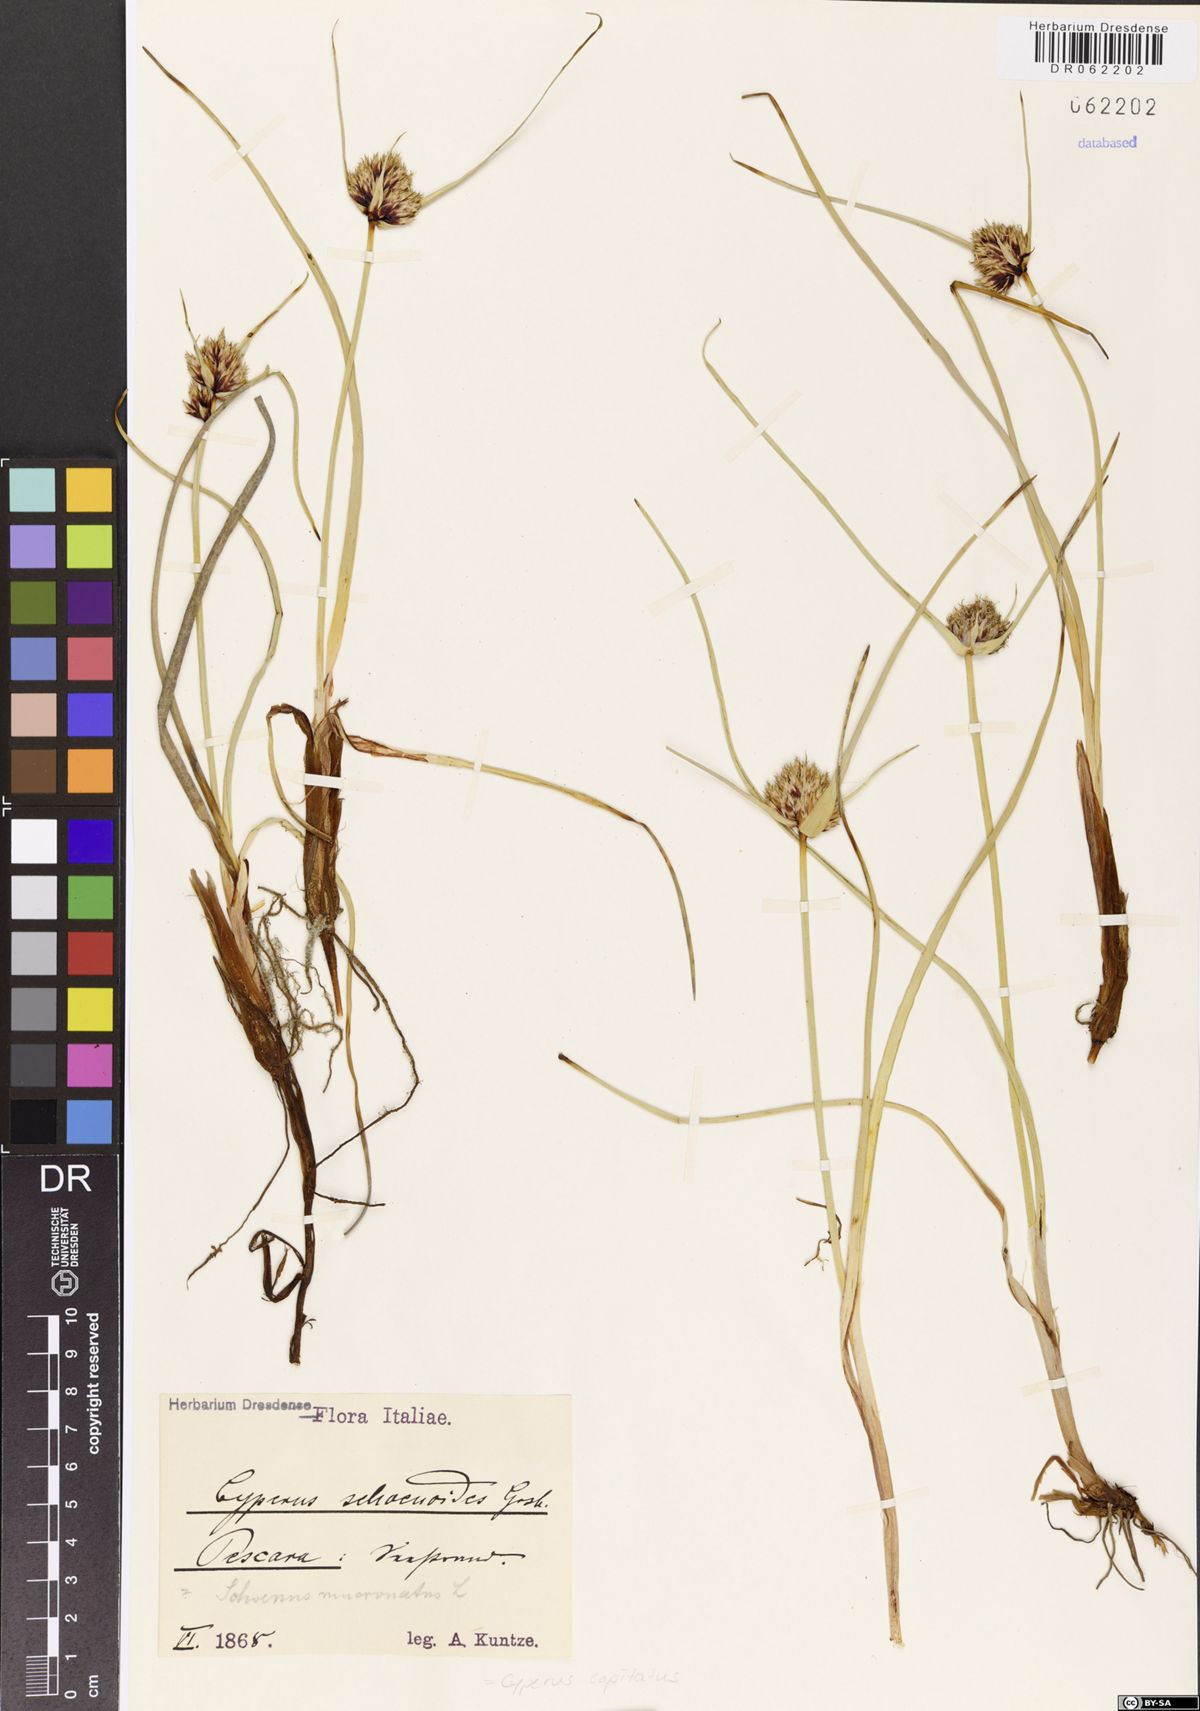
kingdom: Plantae
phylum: Tracheophyta
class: Liliopsida
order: Poales
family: Cyperaceae
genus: Cyperus
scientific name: Cyperus capitatus
